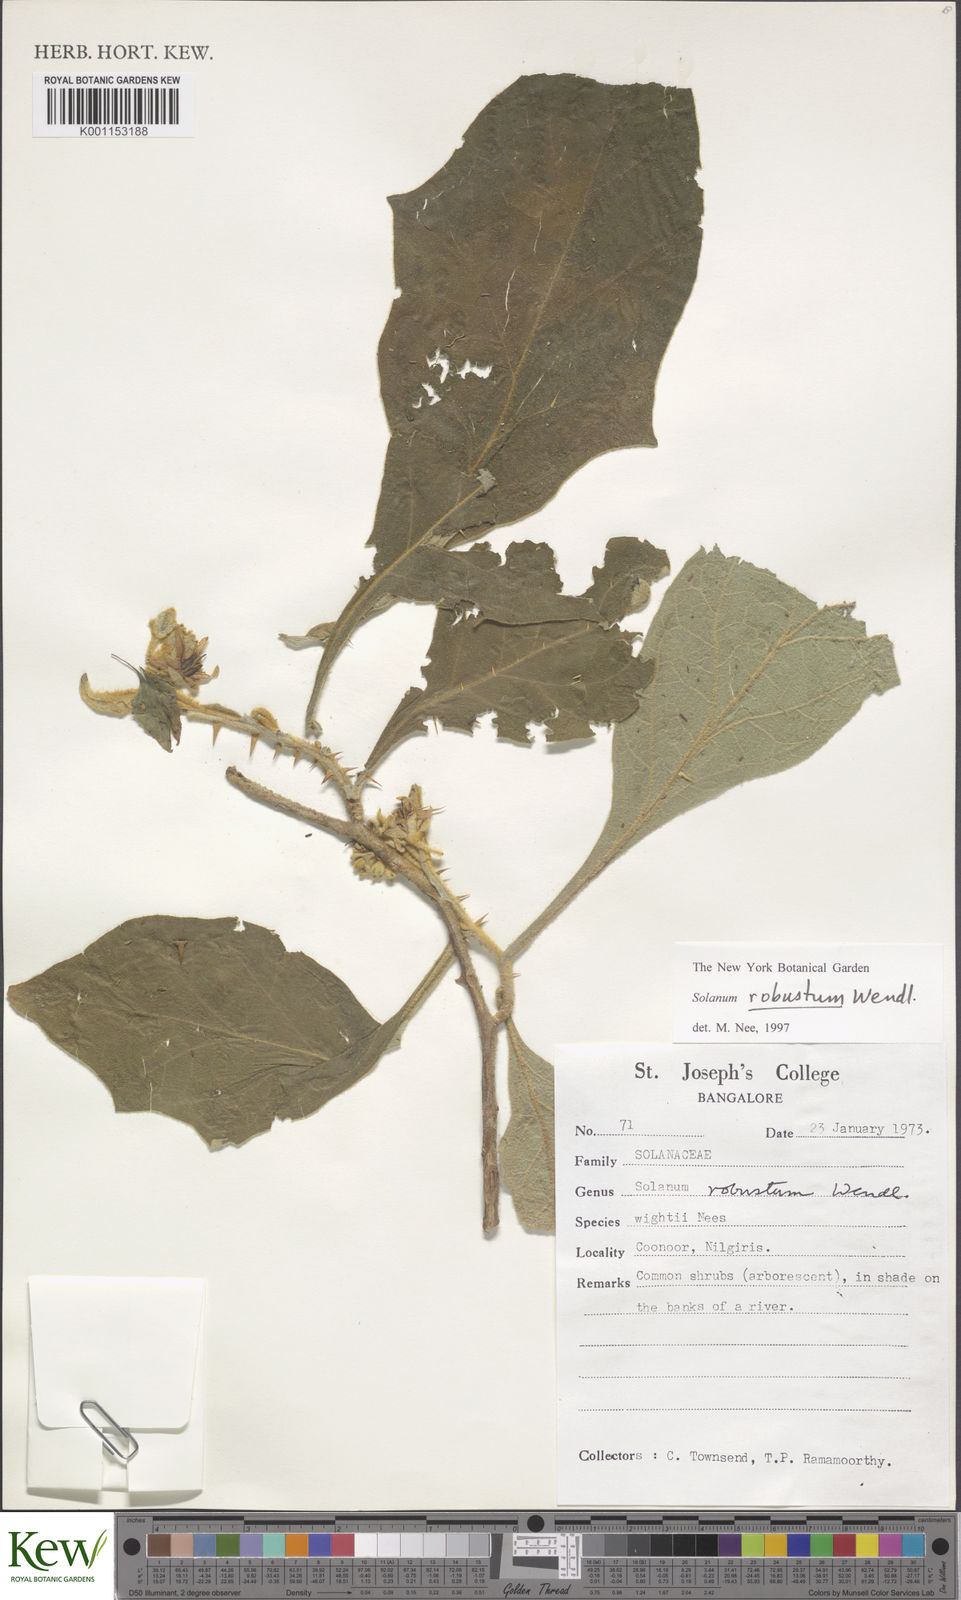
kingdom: Plantae
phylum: Tracheophyta
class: Magnoliopsida
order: Solanales
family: Solanaceae
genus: Solanum
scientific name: Solanum robustum
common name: Shrubby nightshade
